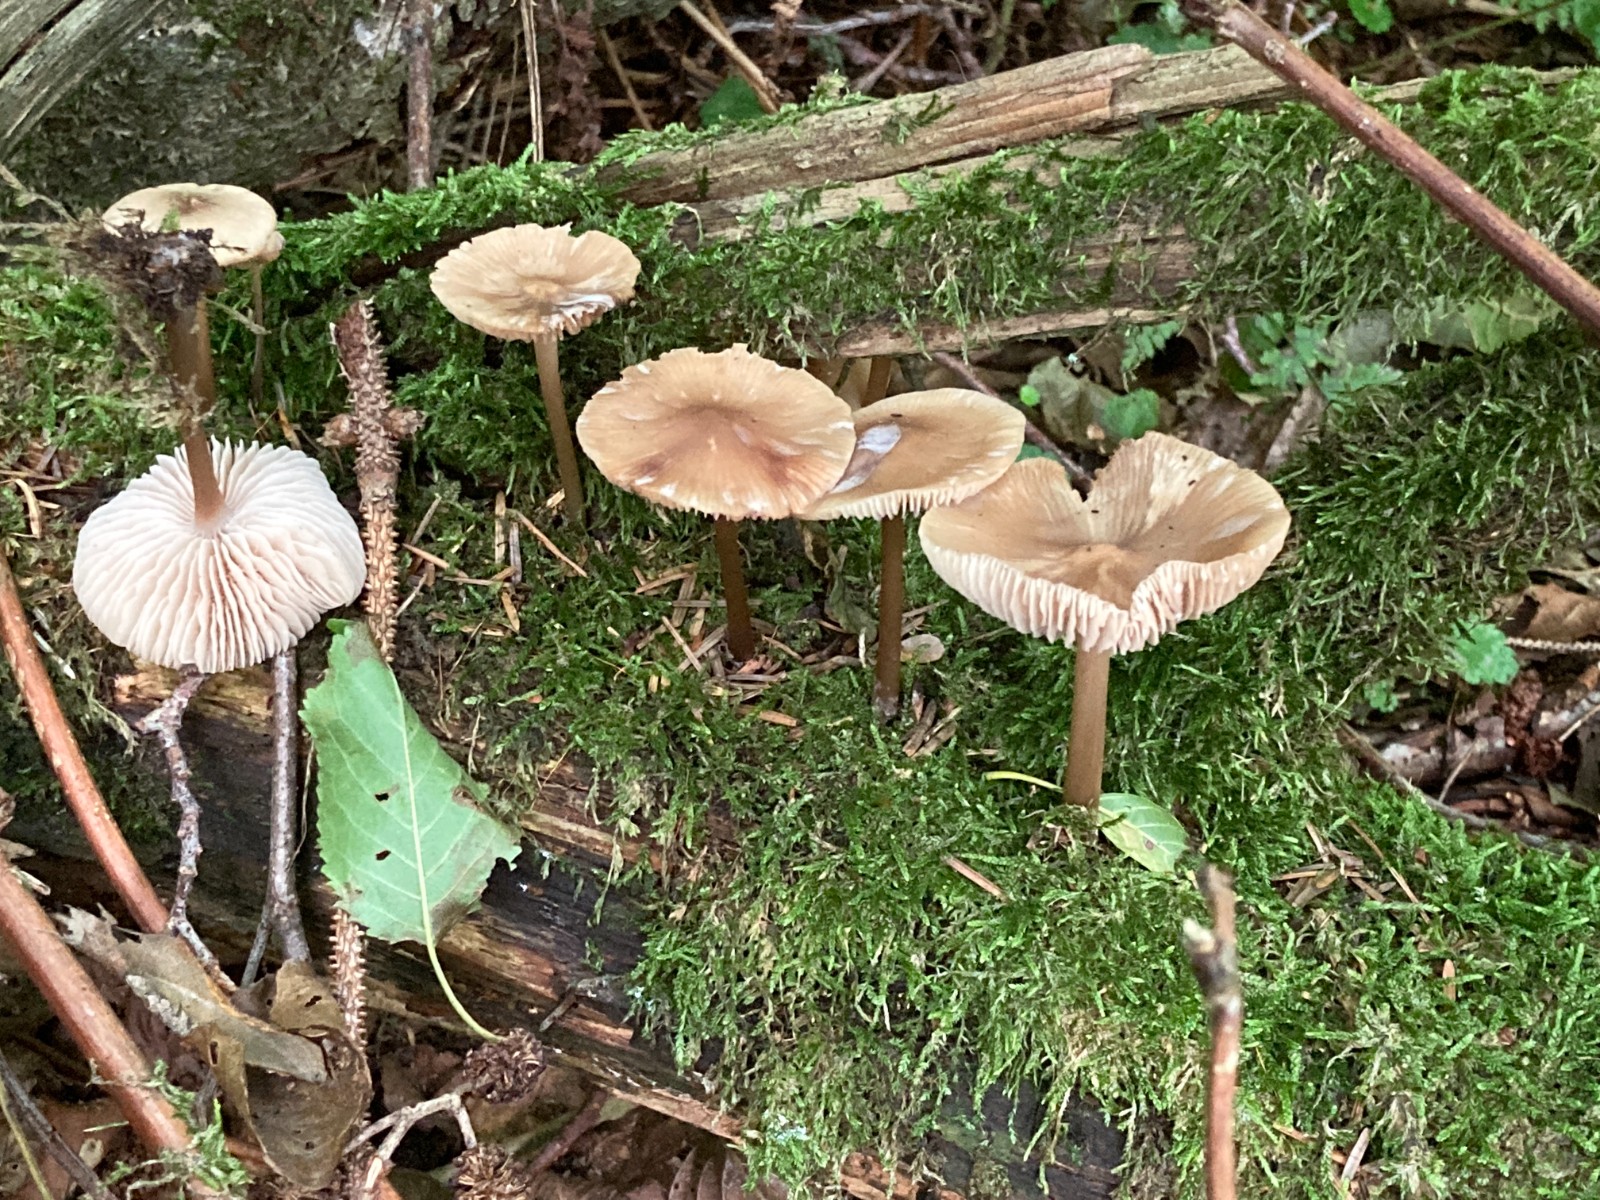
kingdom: Fungi
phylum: Basidiomycota
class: Agaricomycetes
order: Agaricales
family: Mycenaceae
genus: Mycena
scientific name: Mycena galericulata
